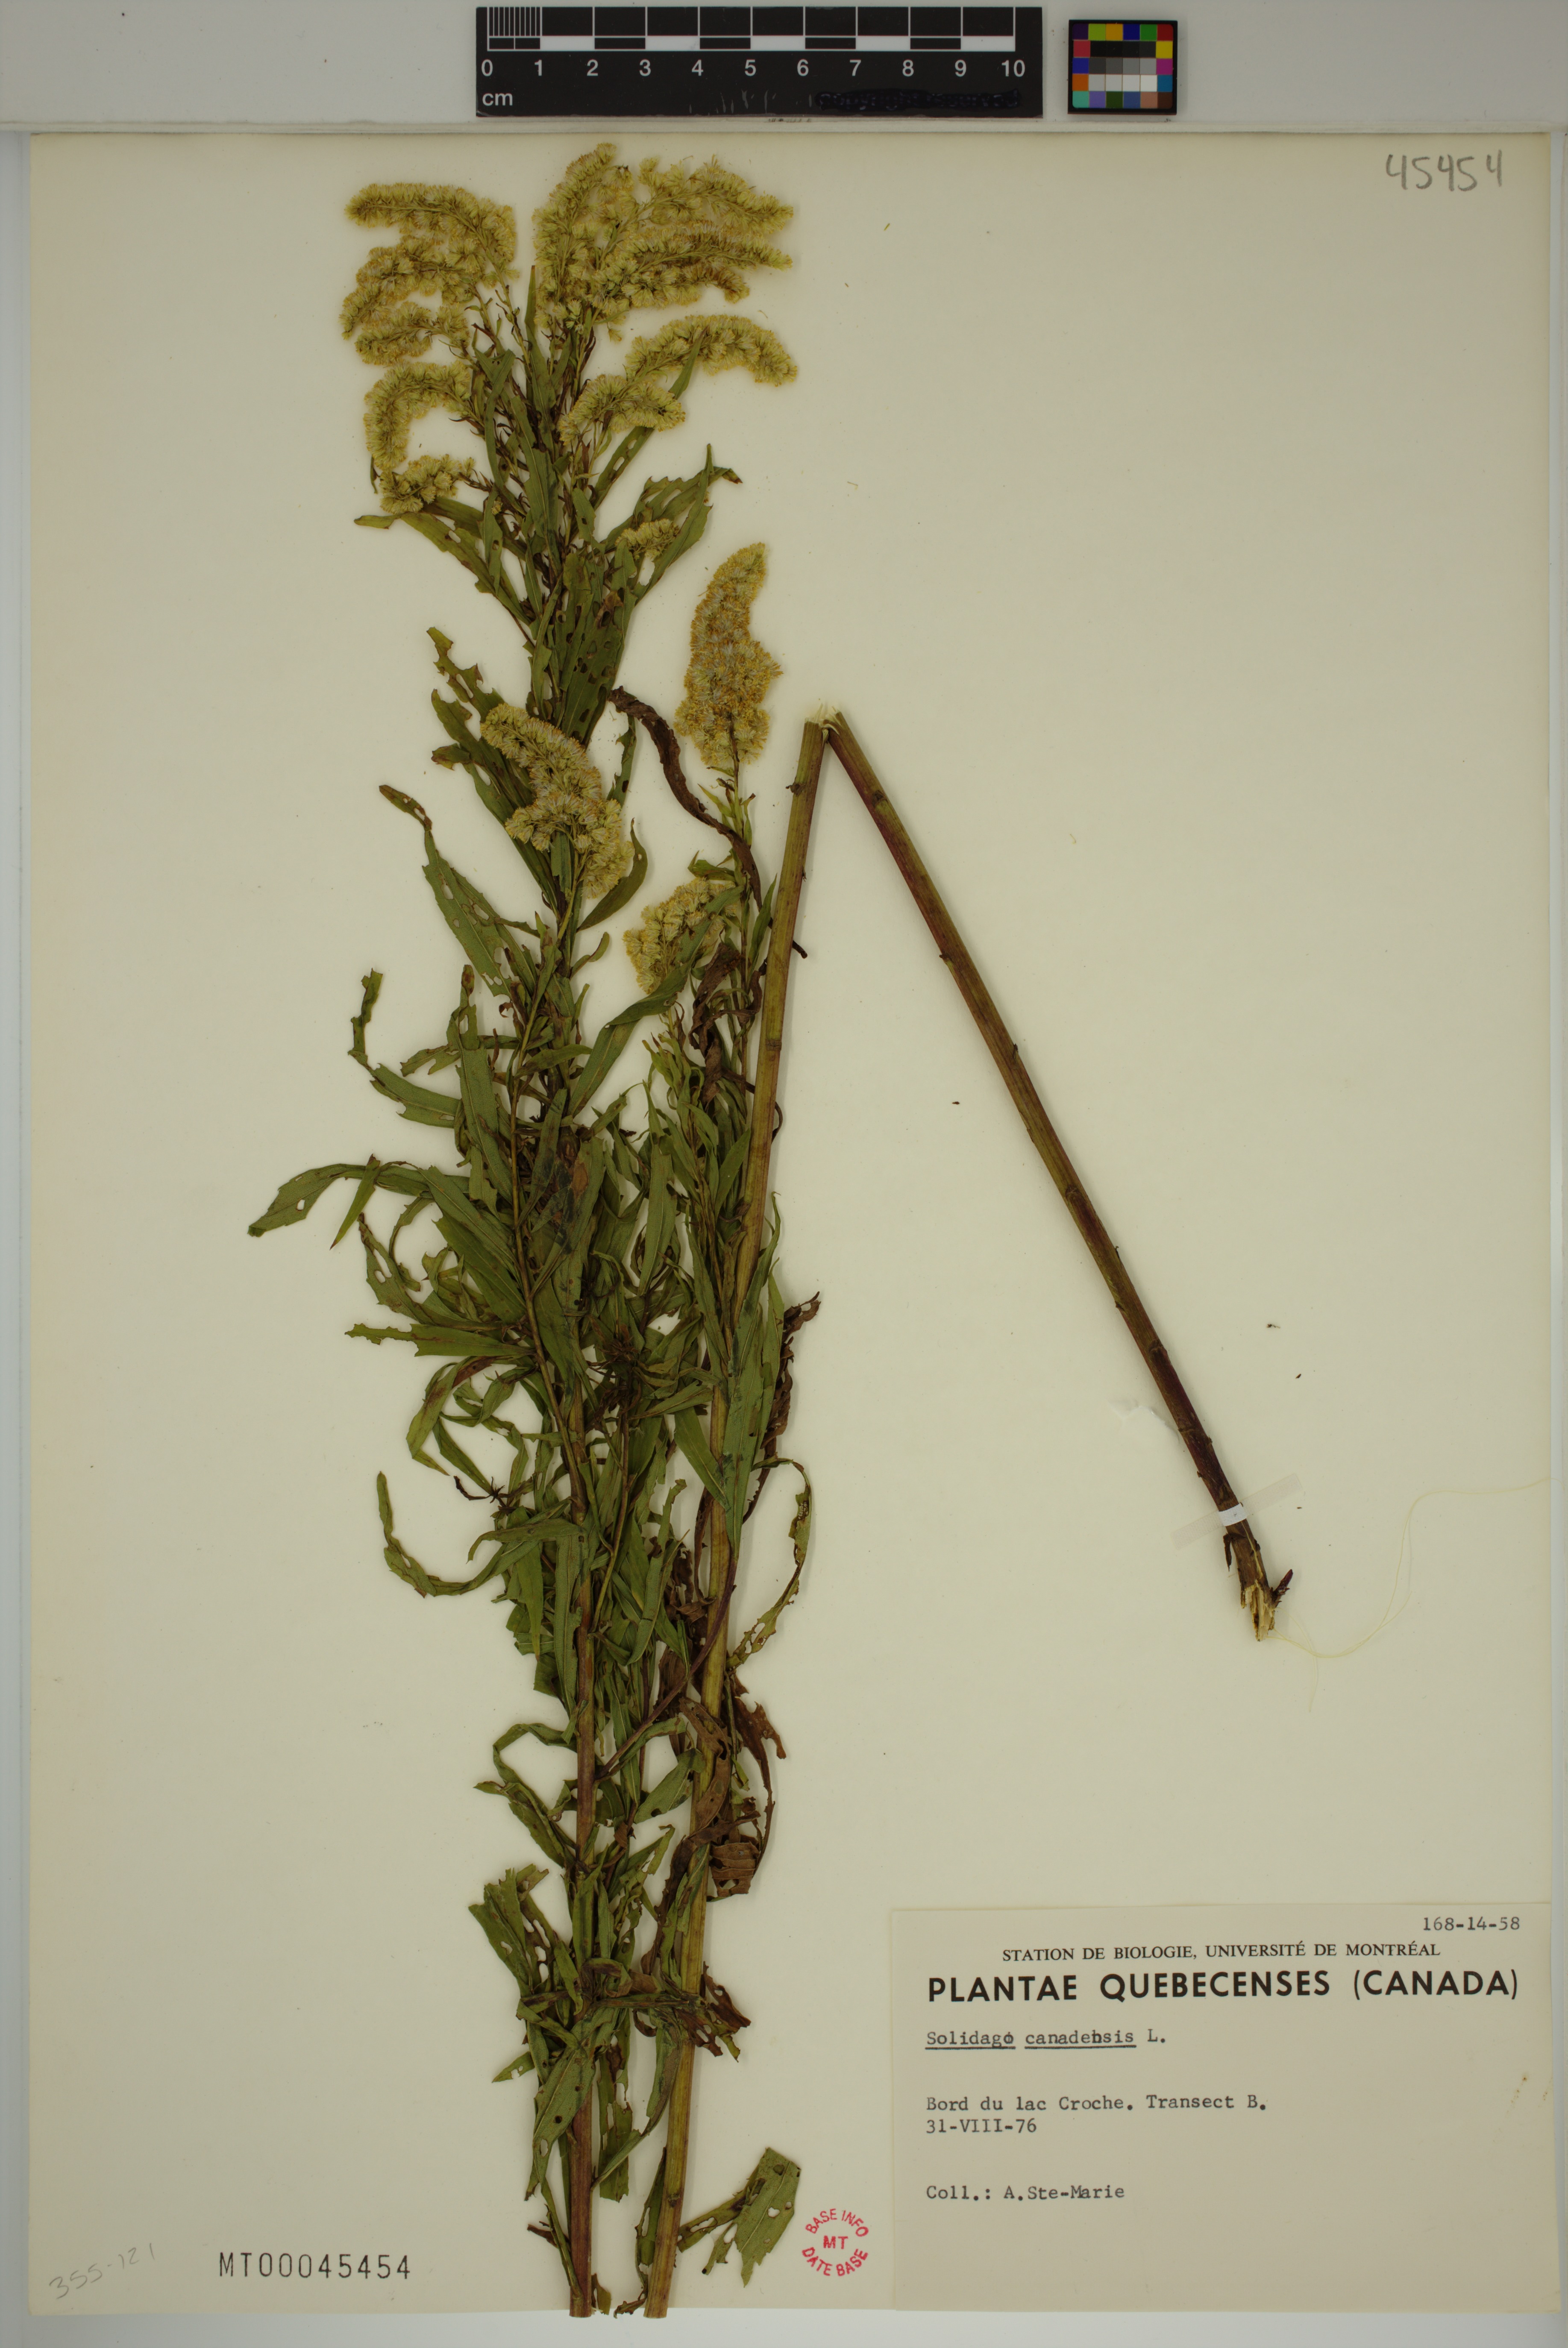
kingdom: Plantae
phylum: Tracheophyta
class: Magnoliopsida
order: Asterales
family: Asteraceae
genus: Solidago
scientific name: Solidago canadensis
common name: Canada goldenrod
